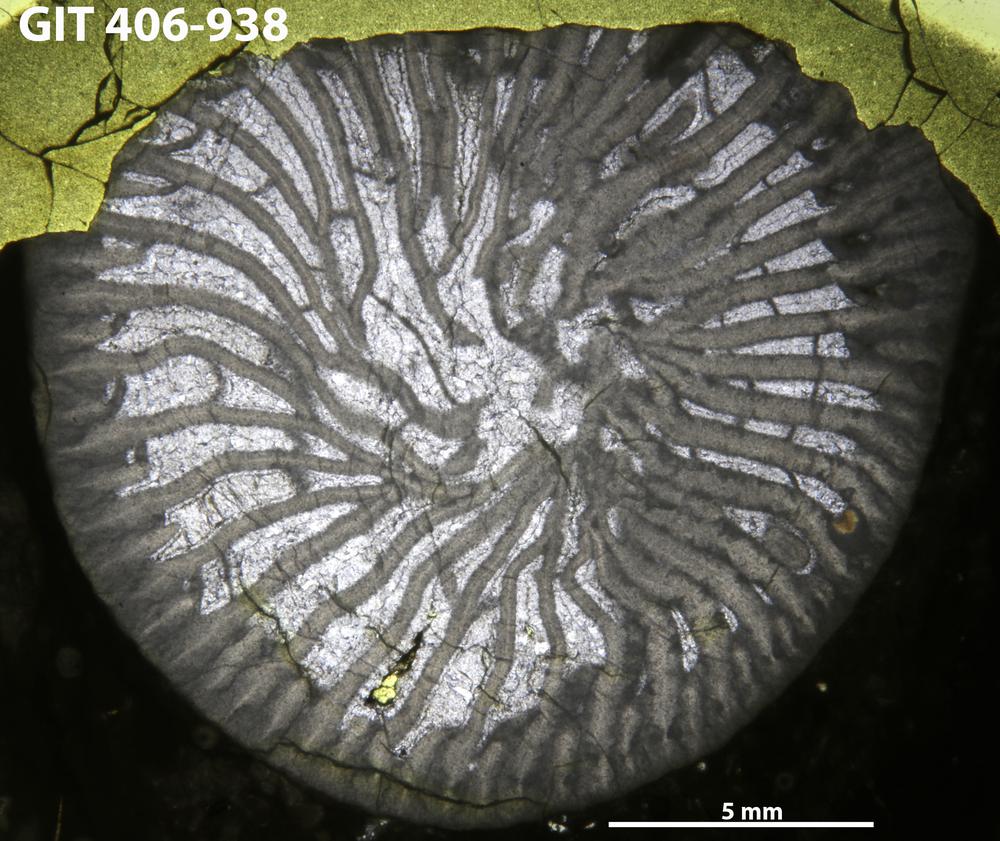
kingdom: Animalia
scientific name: Animalia
